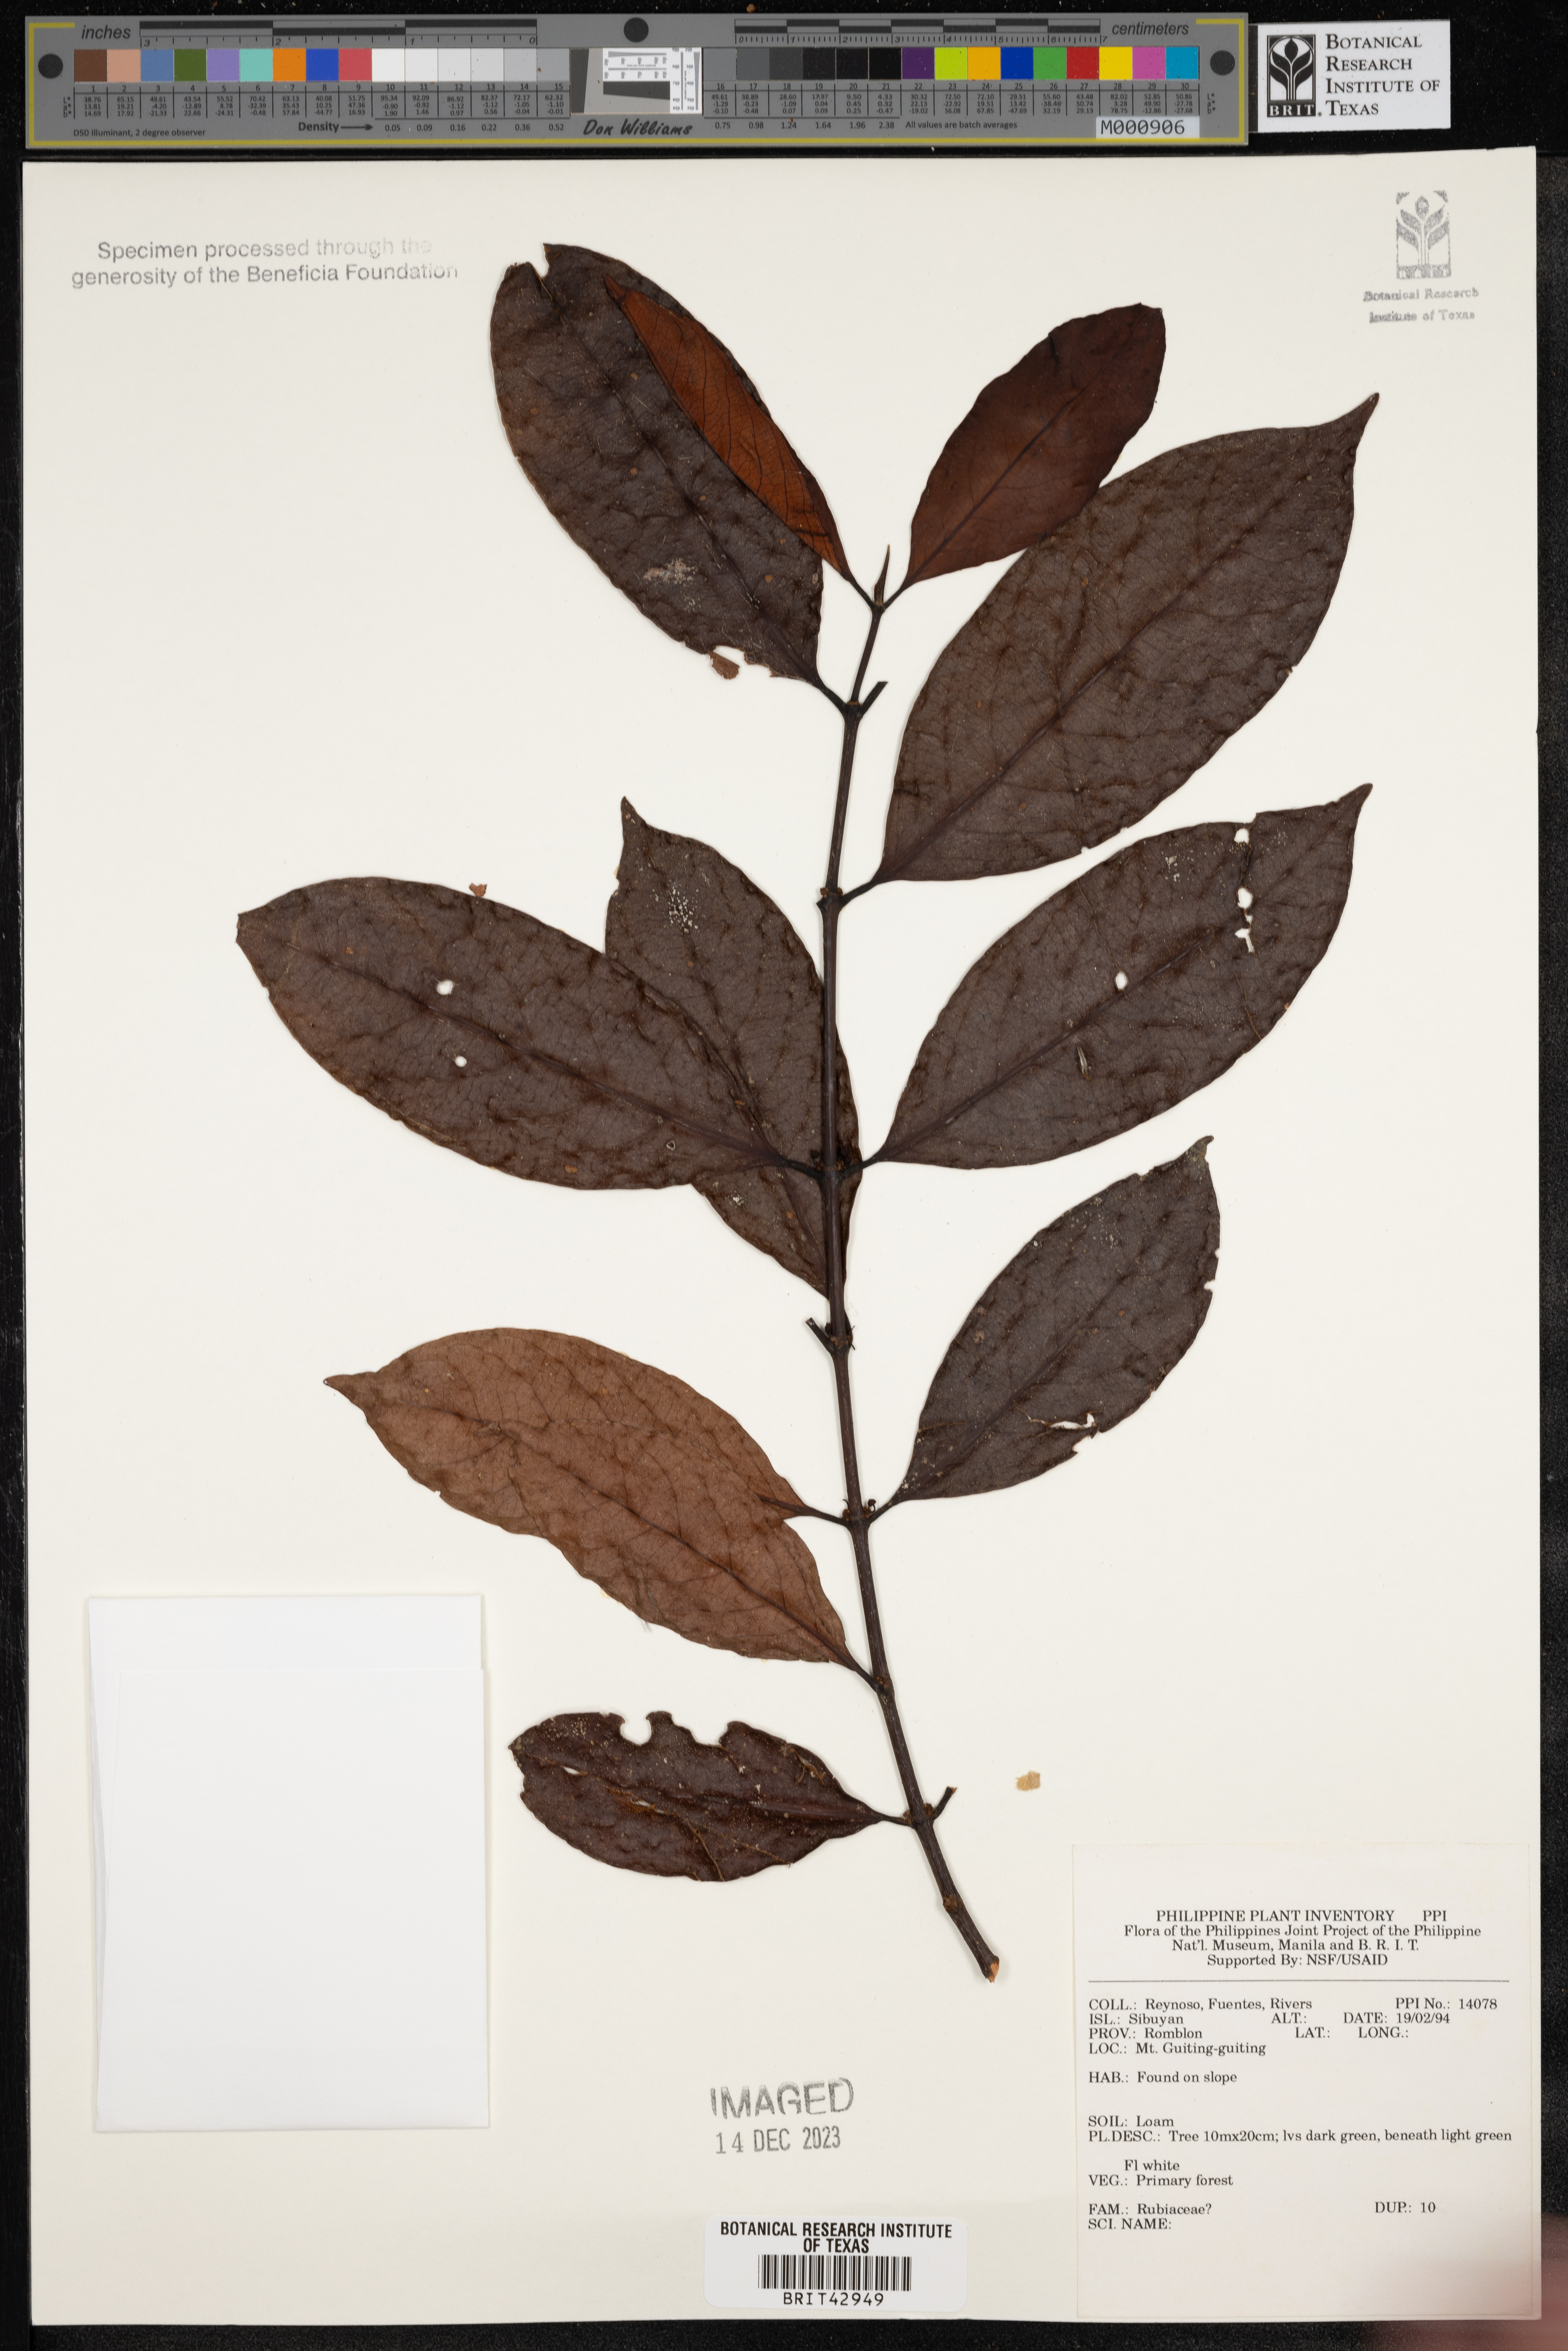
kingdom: Plantae
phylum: Tracheophyta
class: Magnoliopsida
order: Gentianales
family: Rubiaceae
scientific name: Rubiaceae
